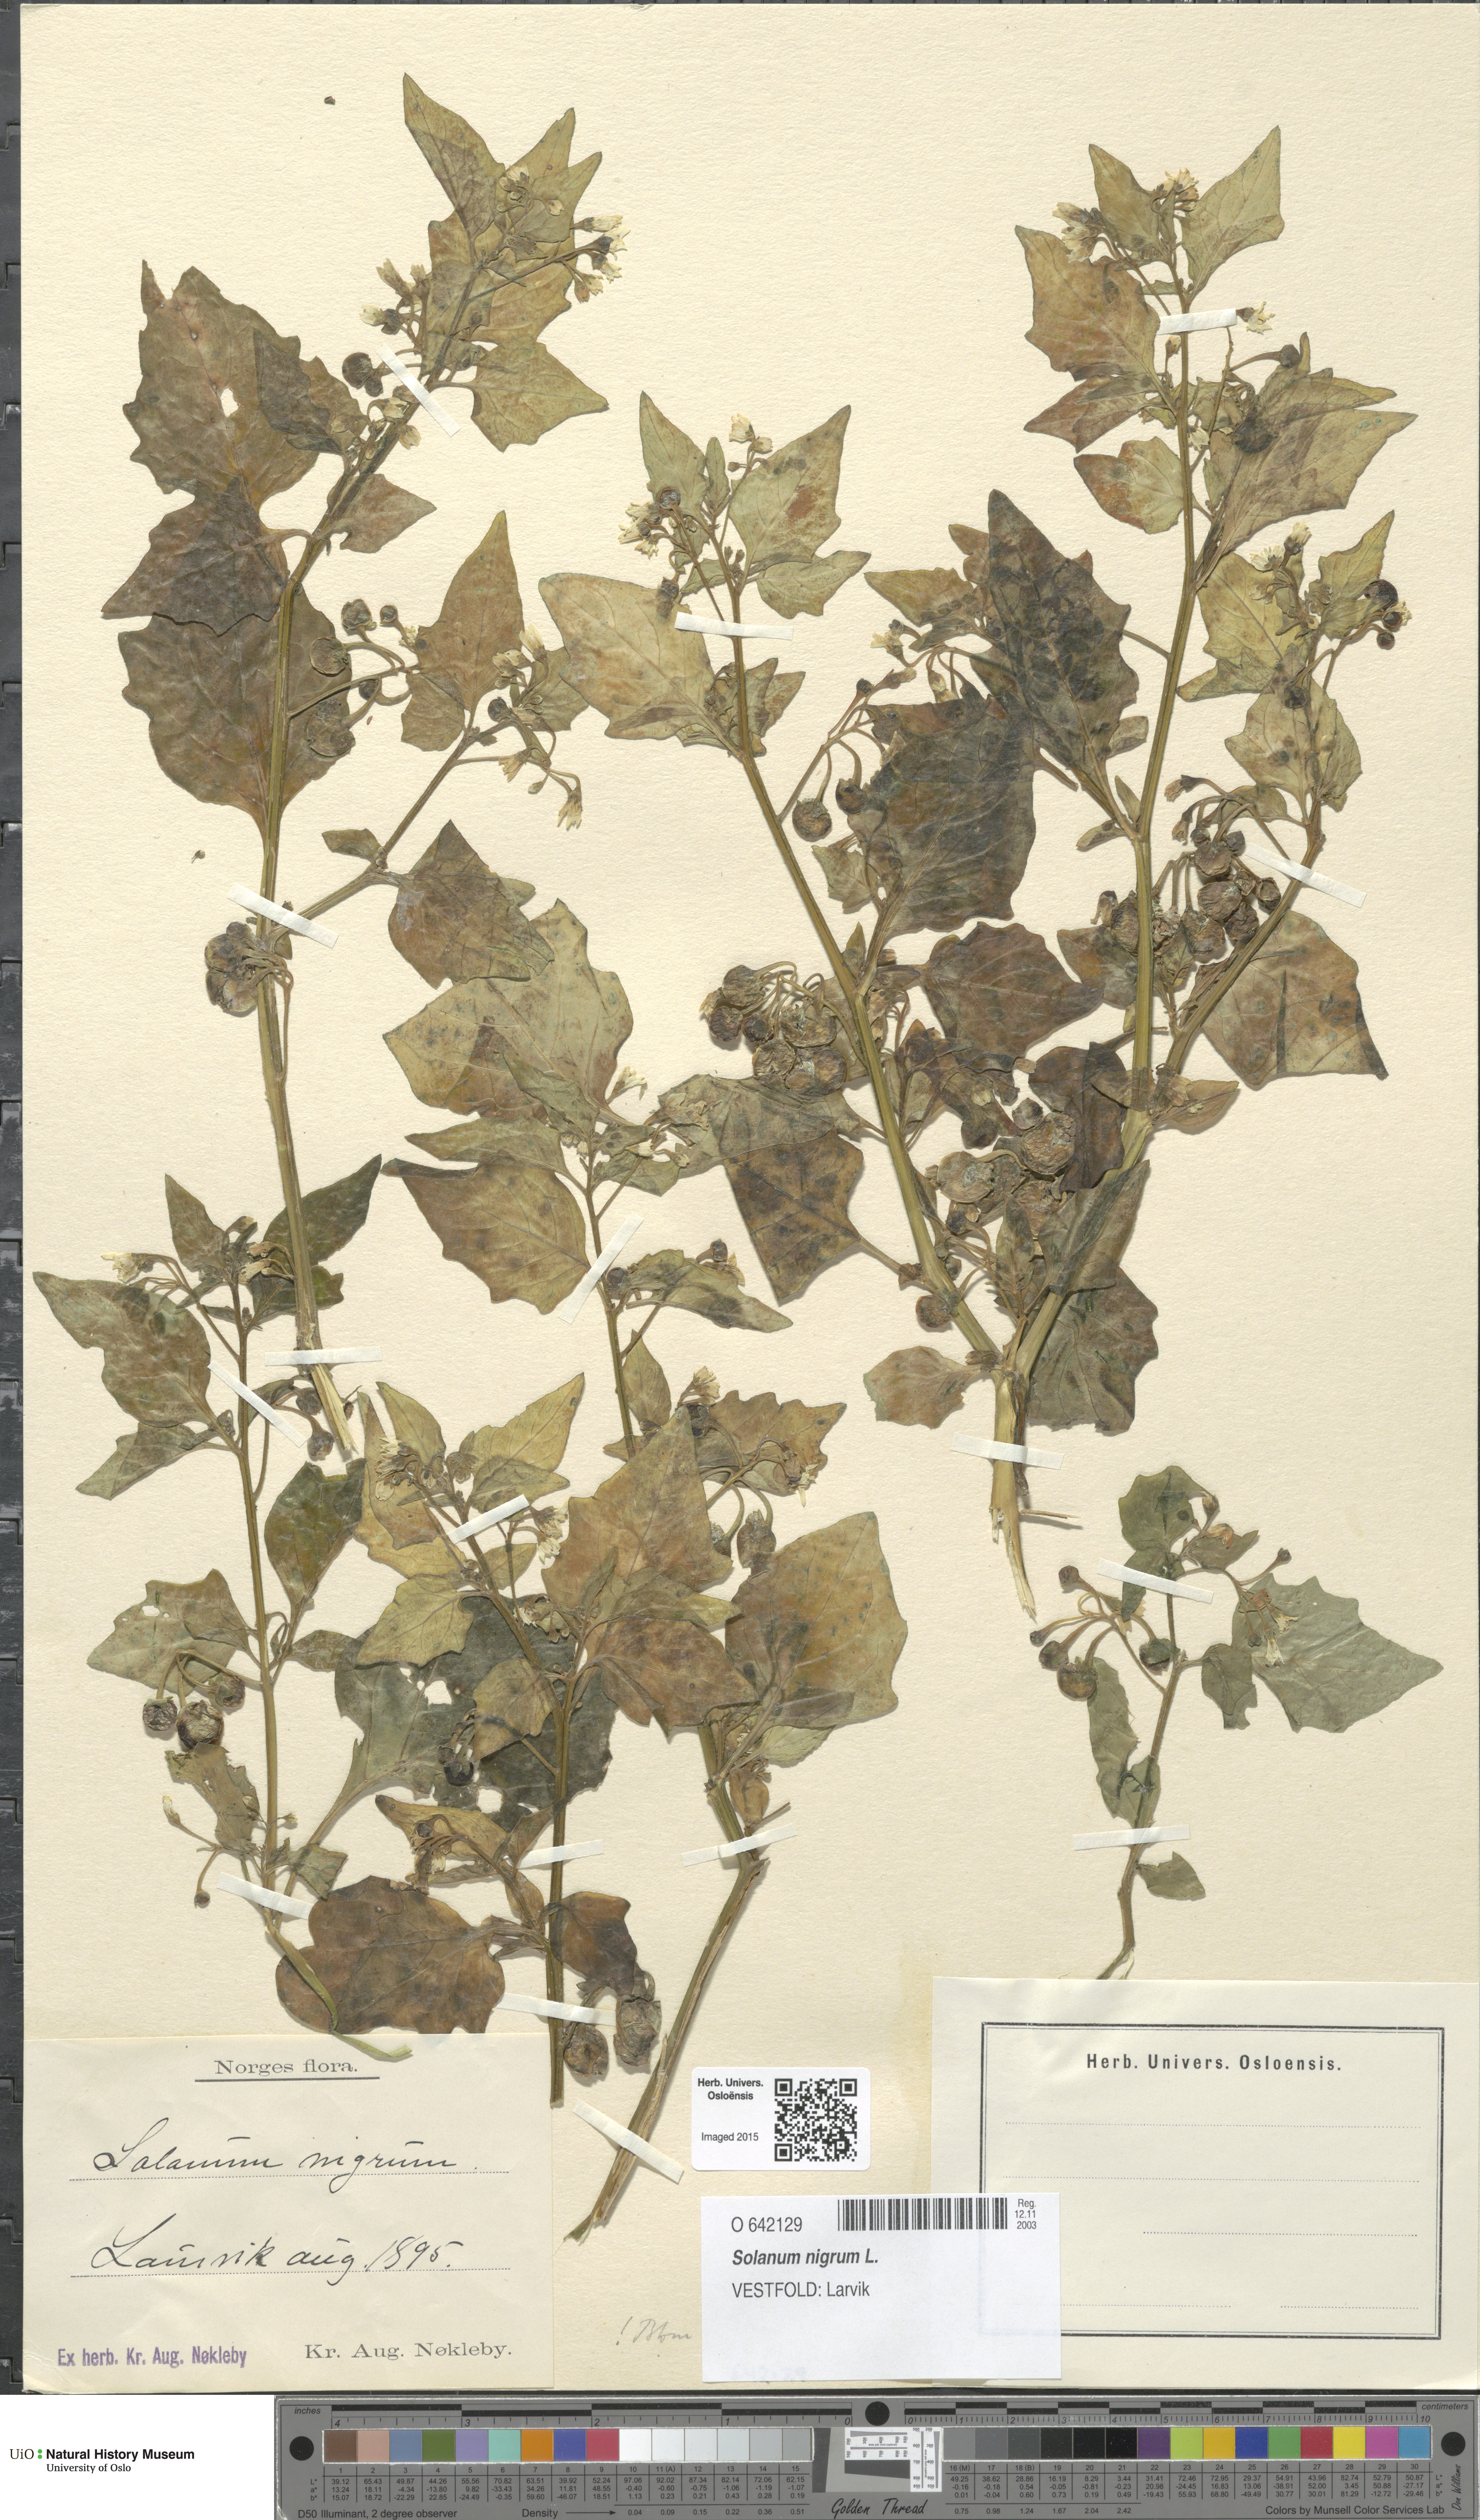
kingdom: Plantae
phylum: Tracheophyta
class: Magnoliopsida
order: Solanales
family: Solanaceae
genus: Solanum
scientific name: Solanum nigrum
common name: Black nightshade
